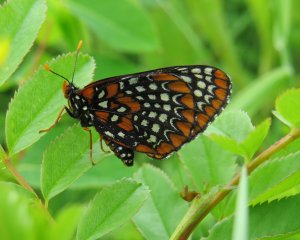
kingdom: Animalia
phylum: Arthropoda
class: Insecta
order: Lepidoptera
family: Nymphalidae
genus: Euphydryas
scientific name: Euphydryas phaeton
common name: Baltimore Checkerspot
